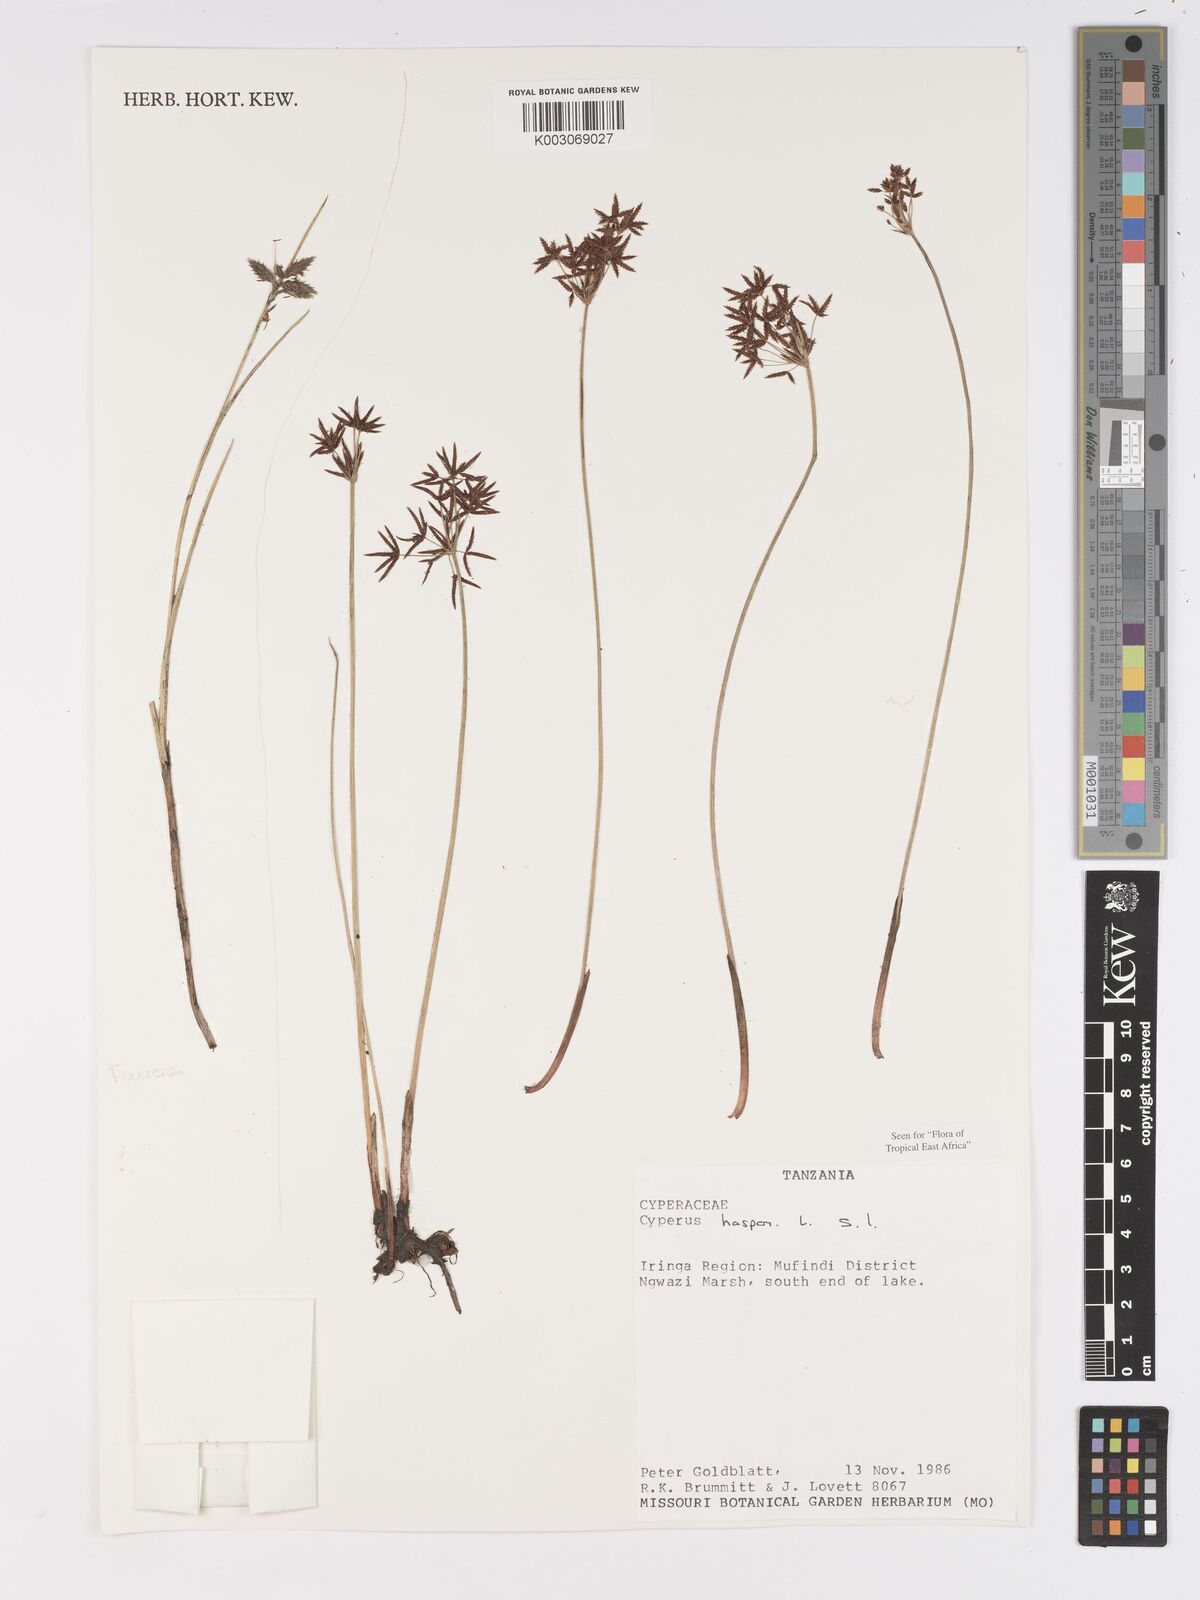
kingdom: Plantae
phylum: Tracheophyta
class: Liliopsida
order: Poales
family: Cyperaceae
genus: Cyperus
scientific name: Cyperus haspan
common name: Haspan flatsedge
